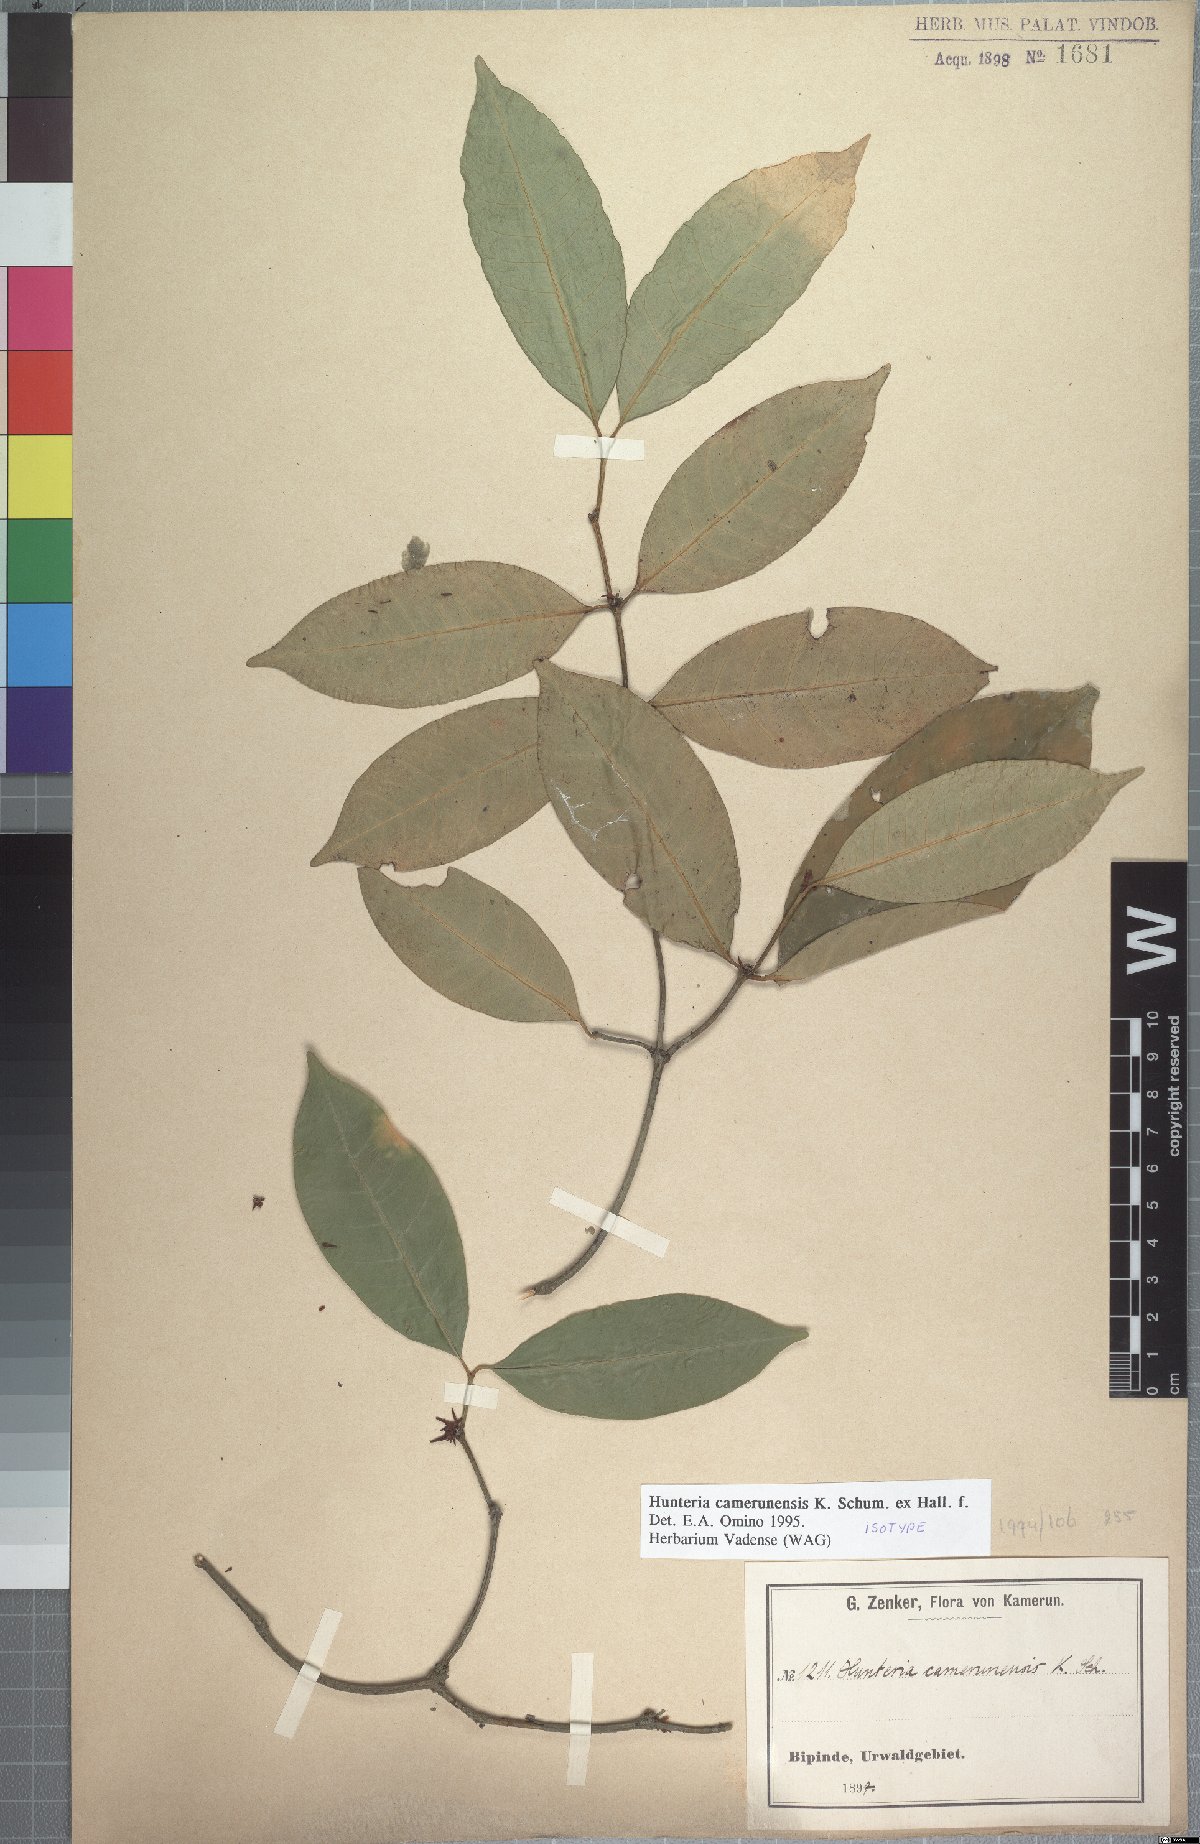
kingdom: Plantae
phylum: Tracheophyta
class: Magnoliopsida
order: Gentianales
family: Apocynaceae
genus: Hunteria
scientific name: Hunteria camerunensis
